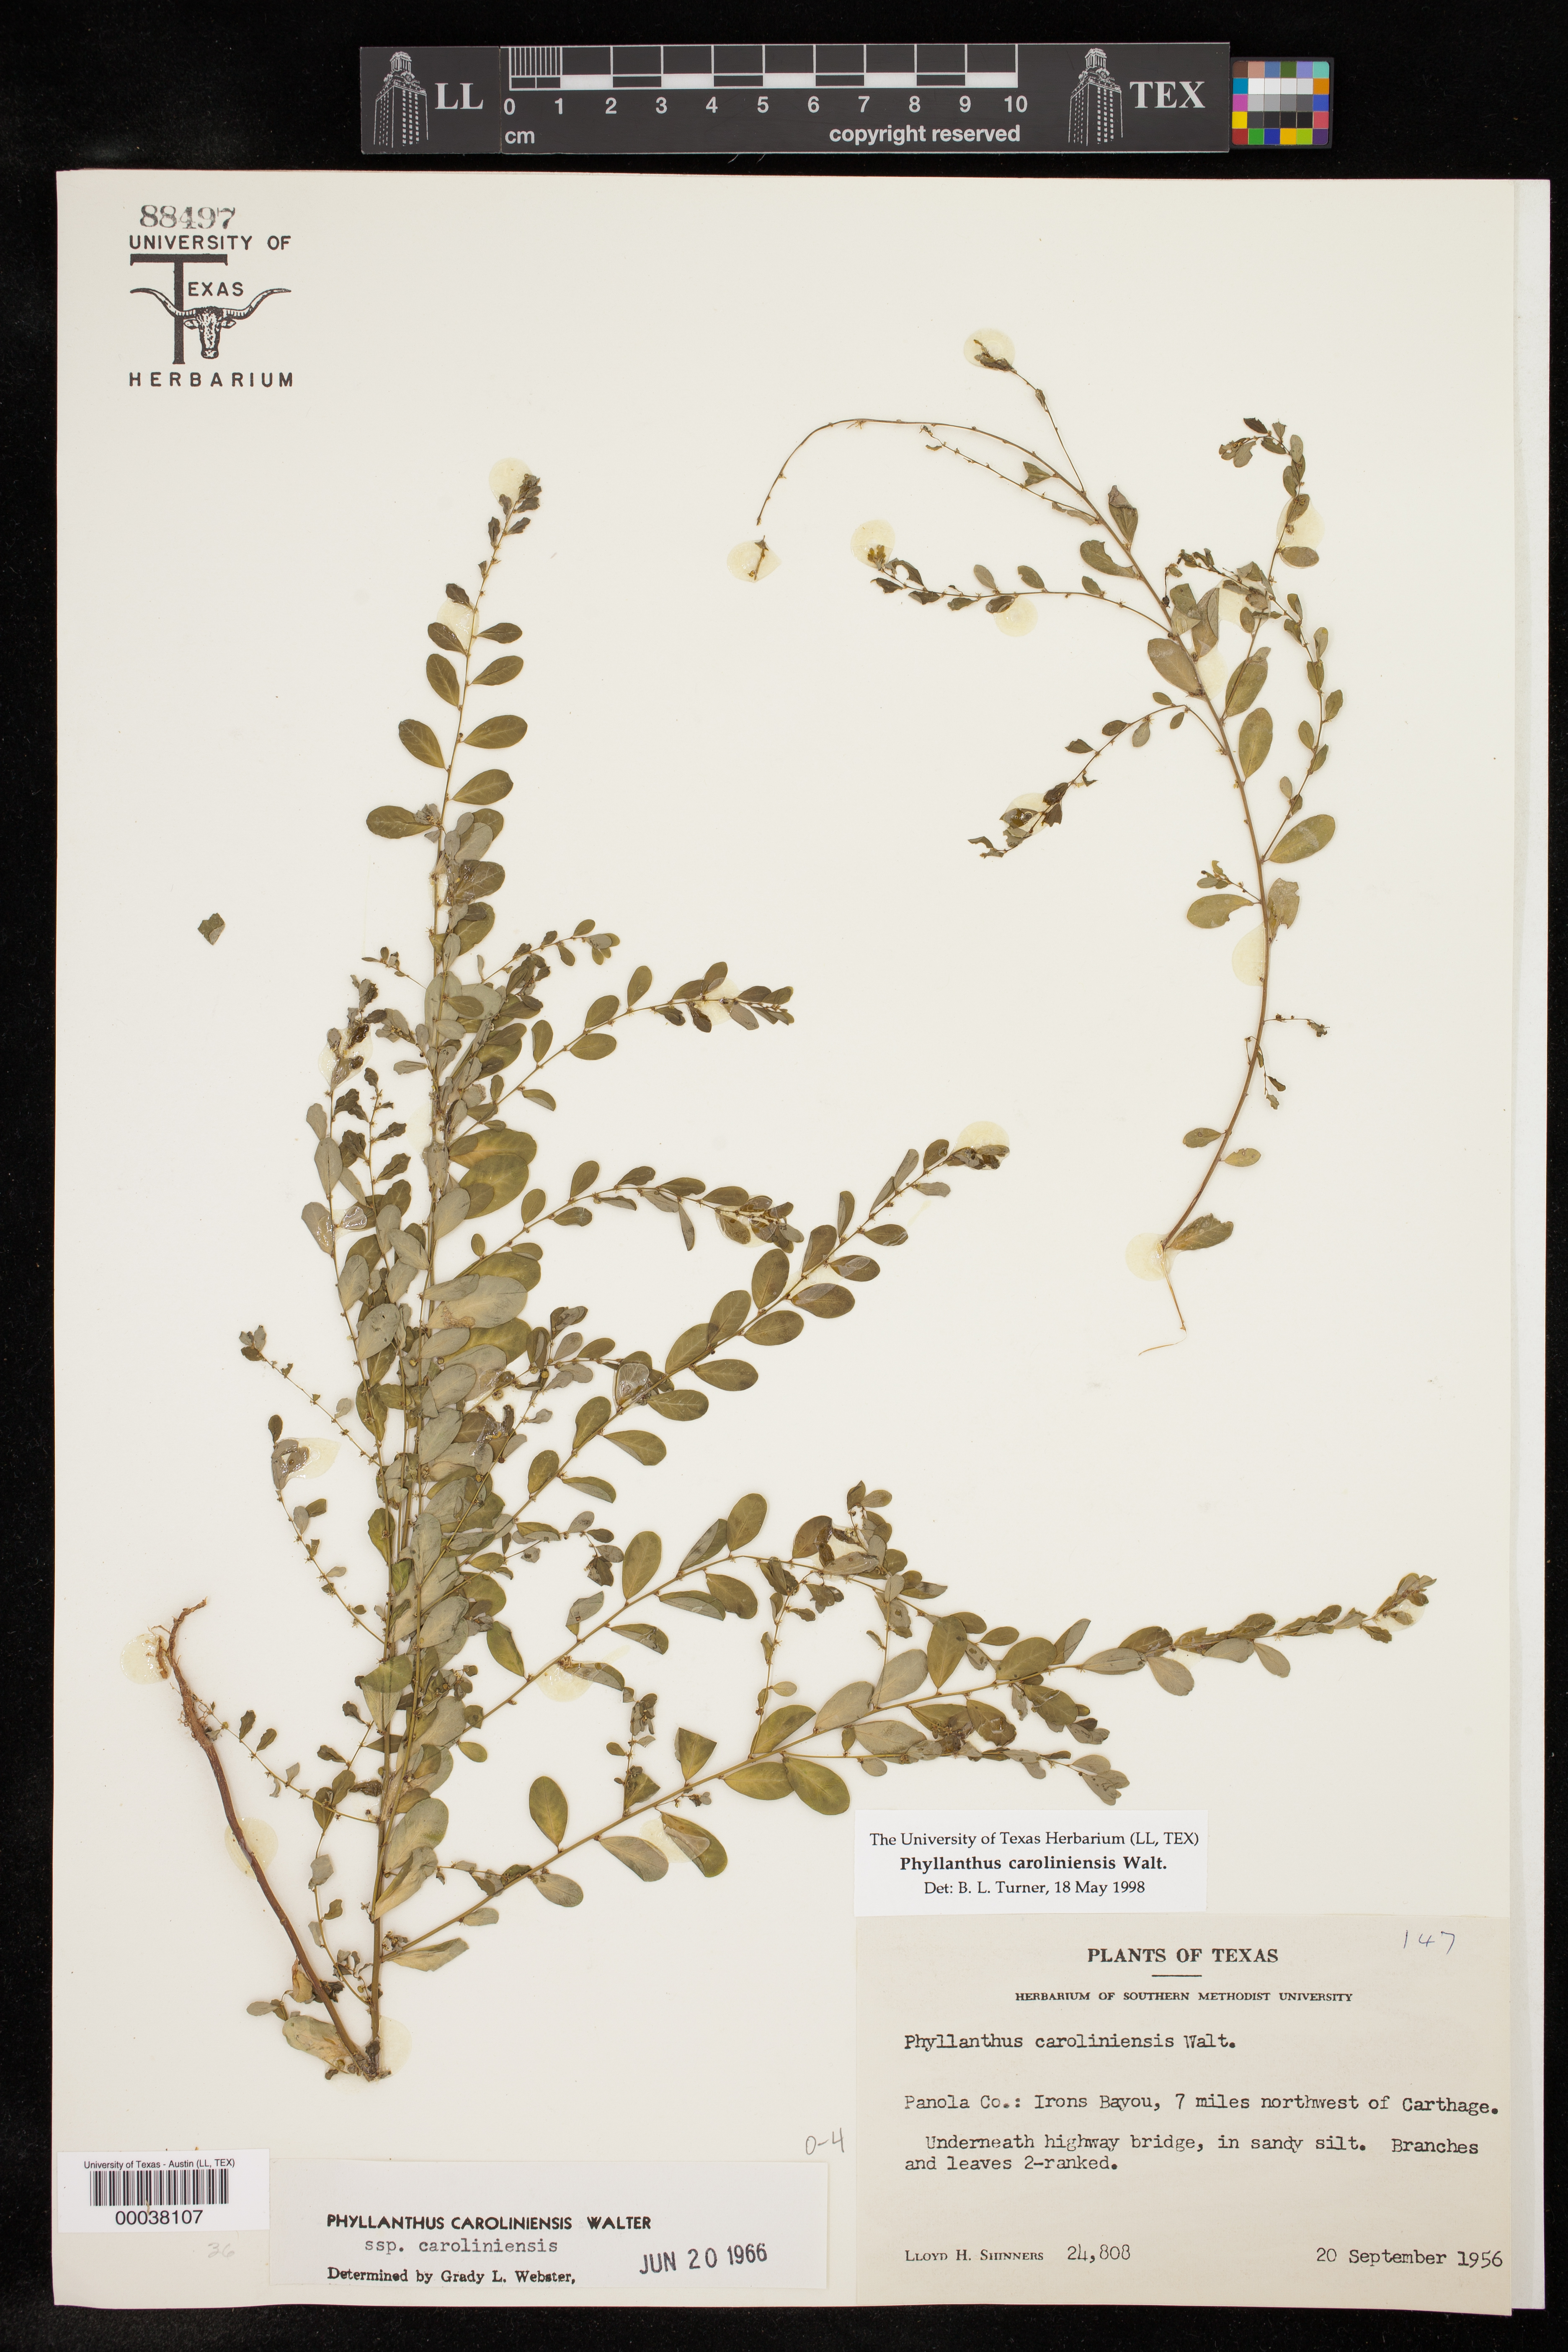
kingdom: Plantae
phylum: Tracheophyta
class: Magnoliopsida
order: Malpighiales
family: Phyllanthaceae
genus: Phyllanthus
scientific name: Phyllanthus caroliniensis
